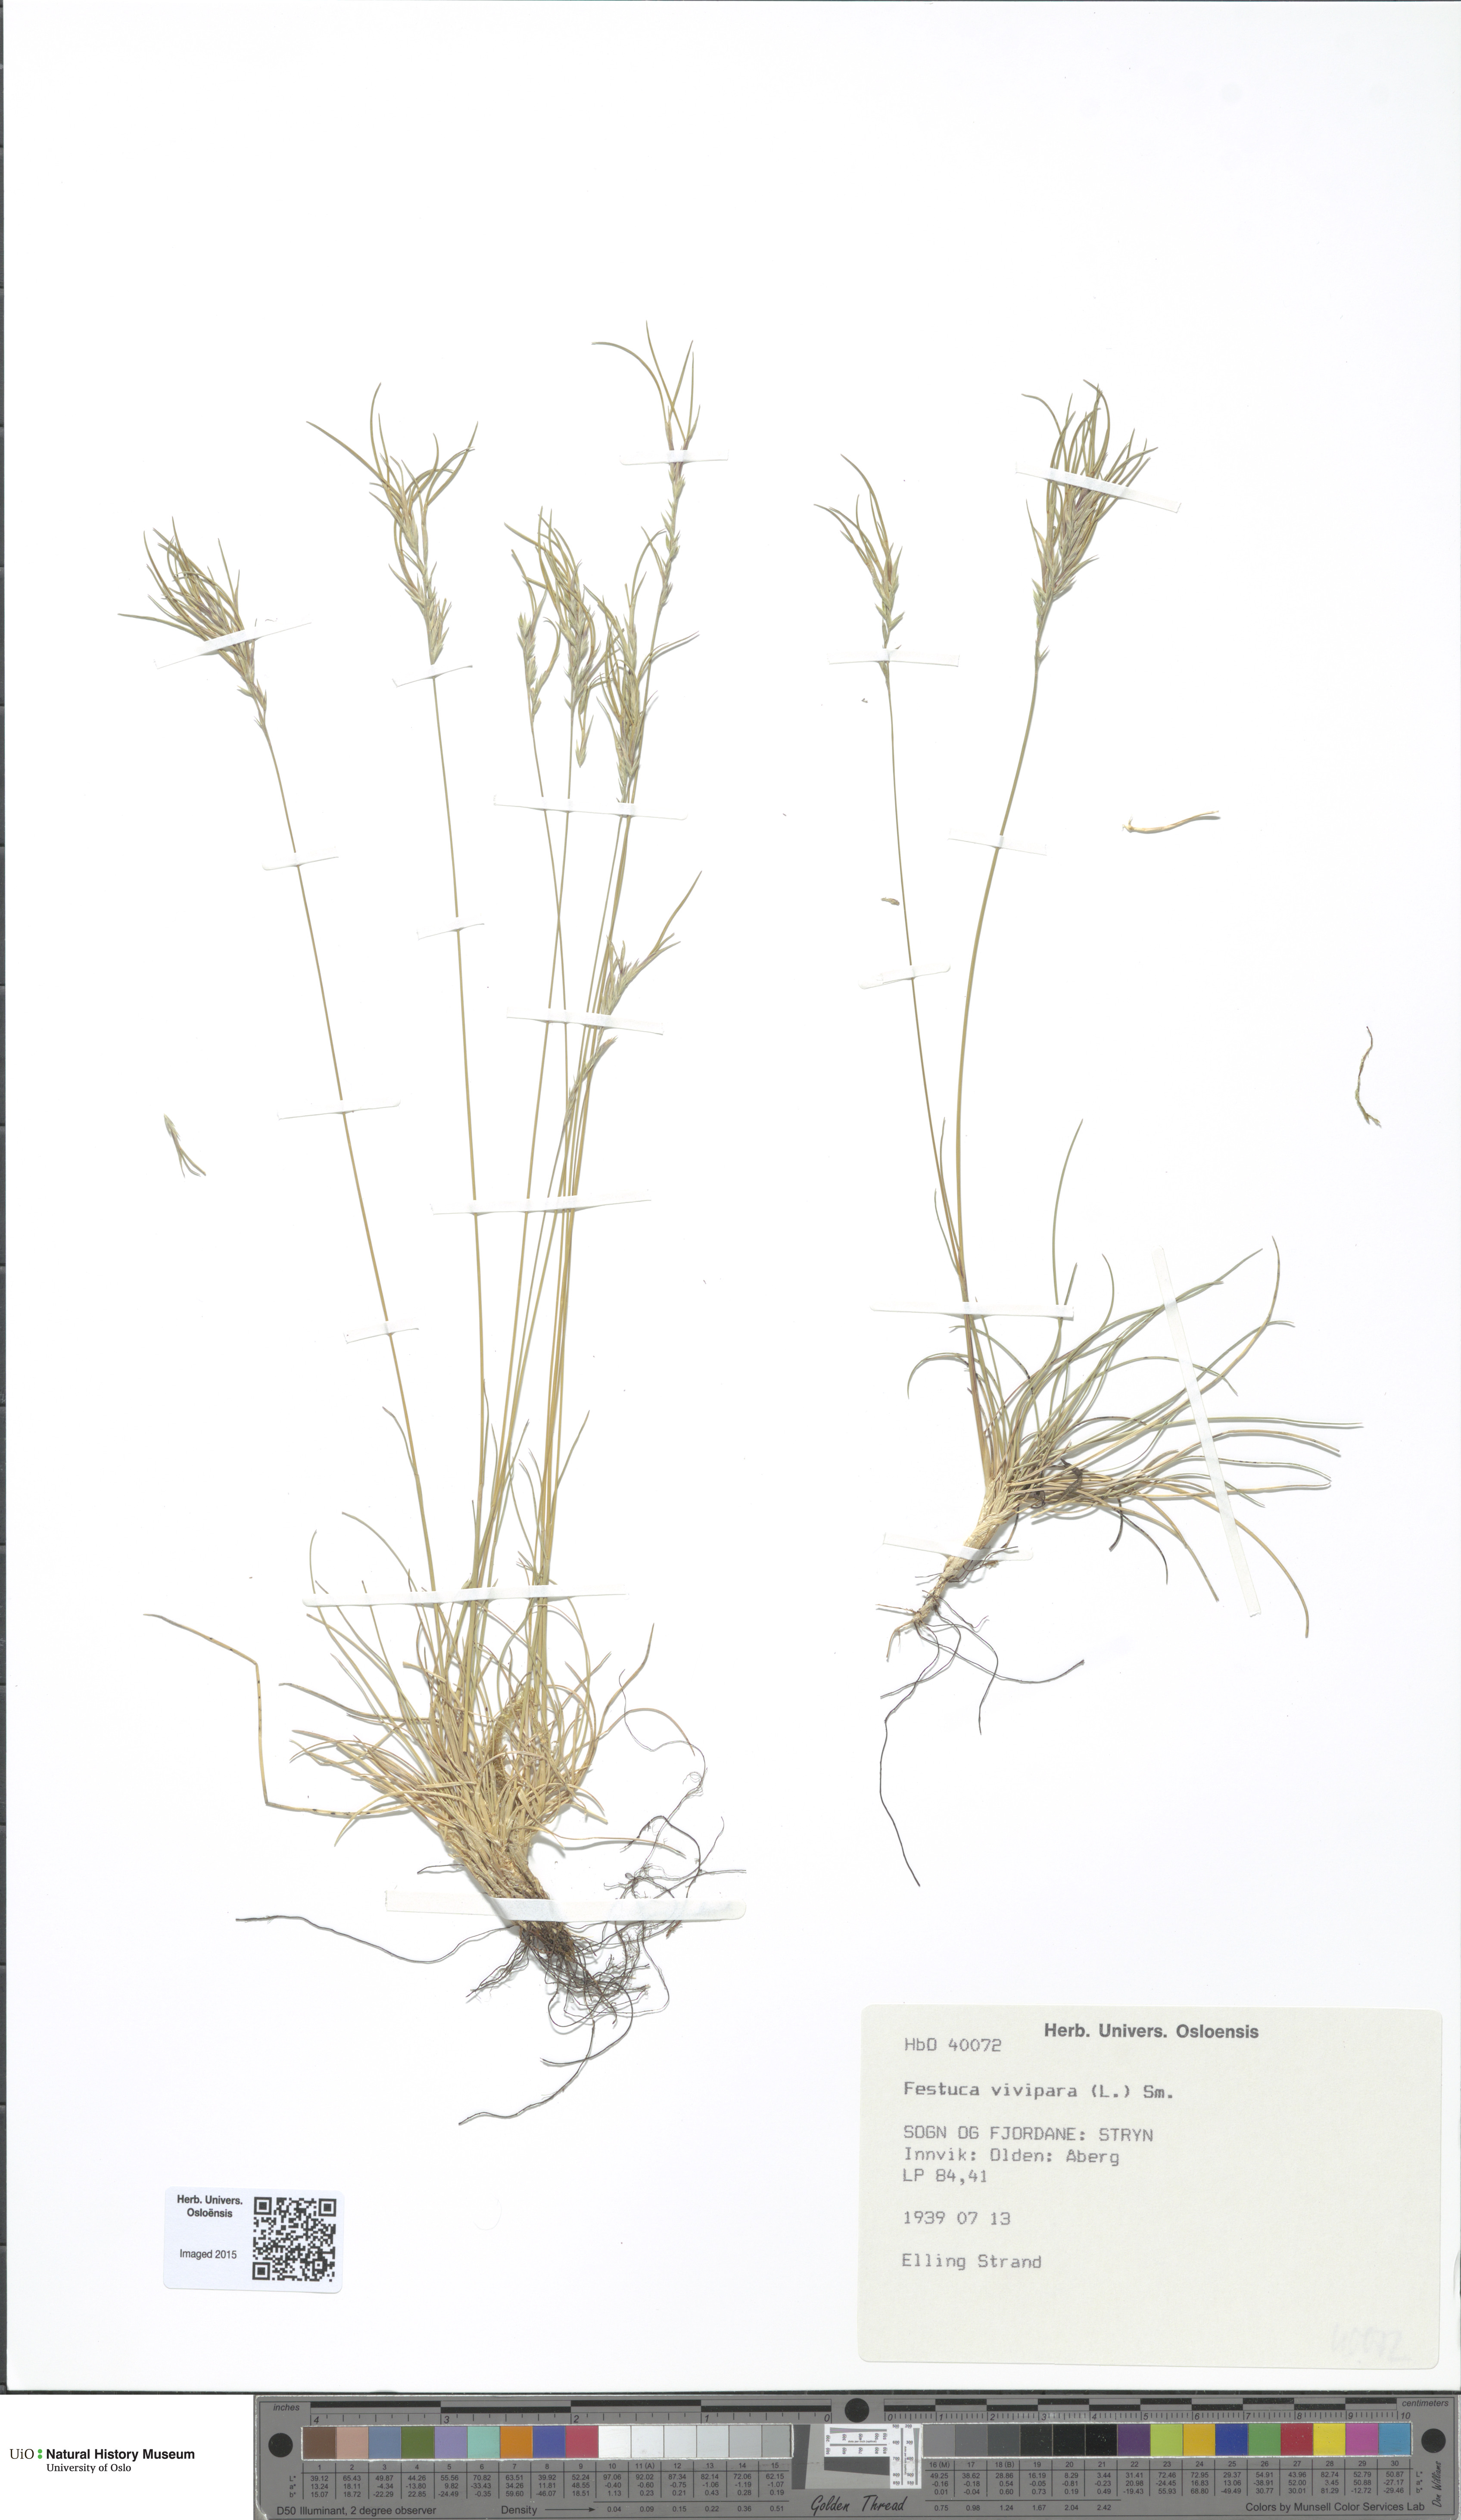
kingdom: Plantae
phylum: Tracheophyta
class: Liliopsida
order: Poales
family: Poaceae
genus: Festuca
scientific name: Festuca vivipara
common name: Viviparous sheep's-fescue
